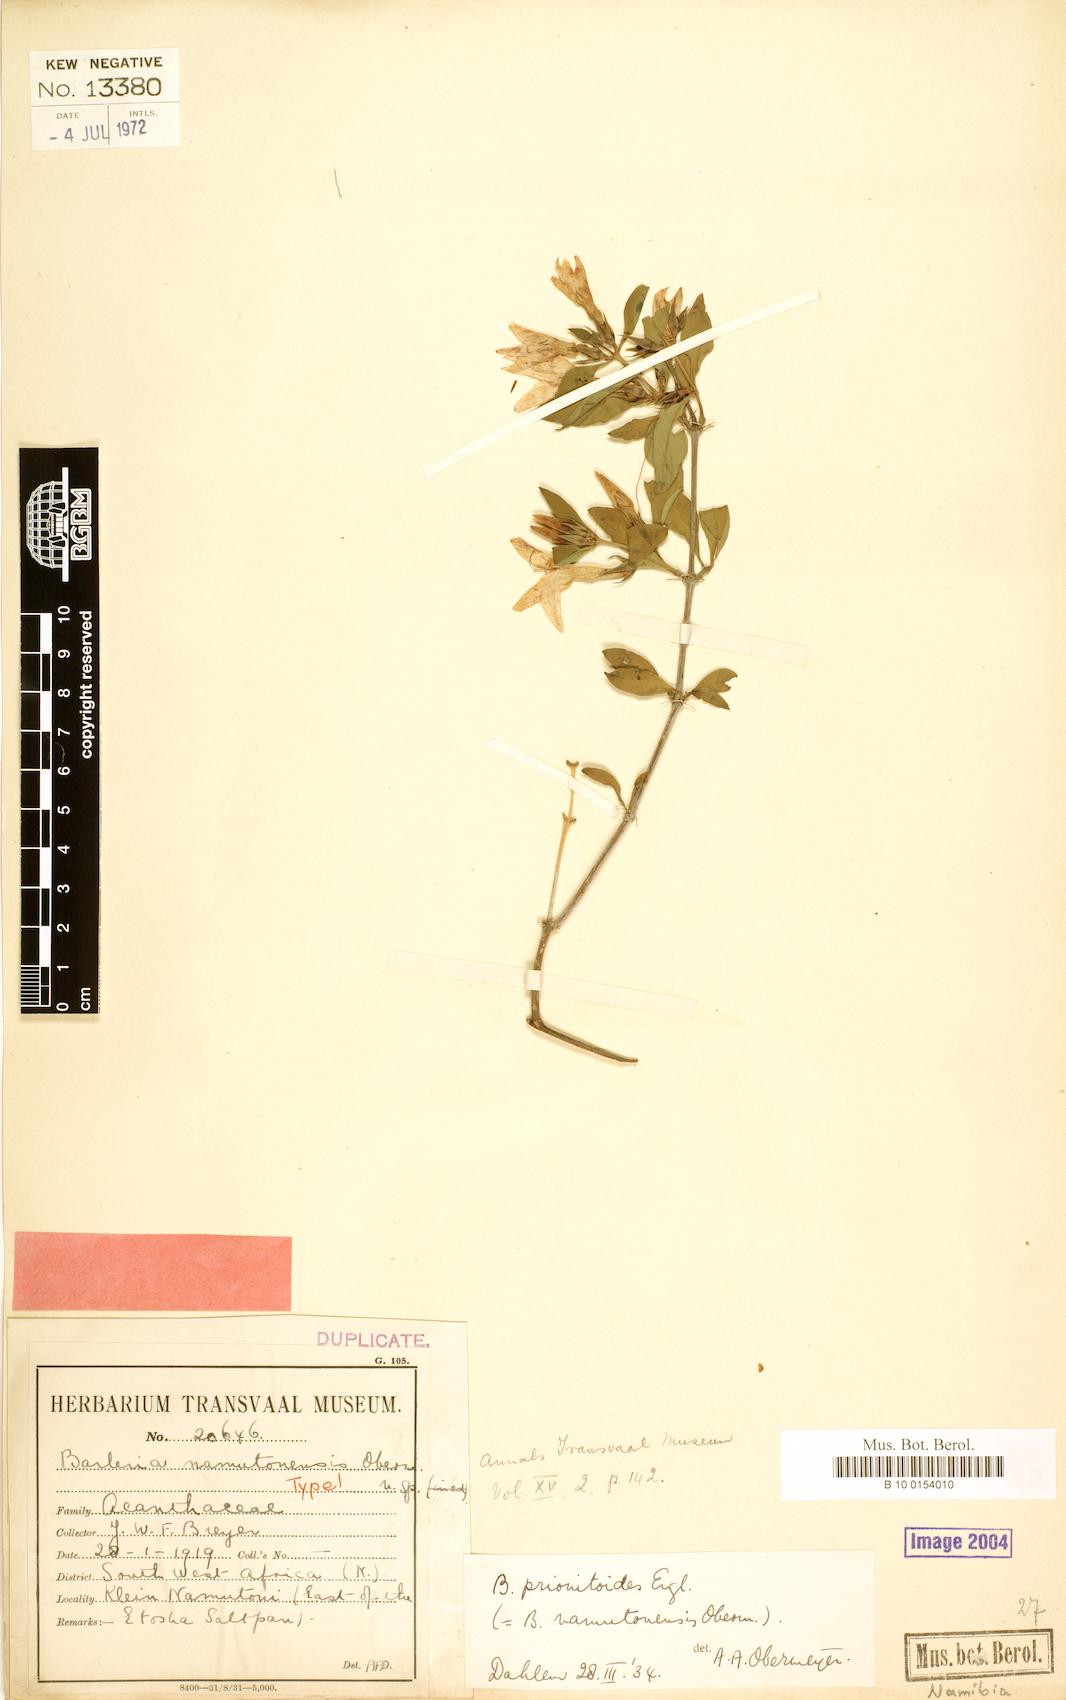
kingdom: Plantae
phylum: Tracheophyta
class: Magnoliopsida
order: Lamiales
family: Acanthaceae
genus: Barleria
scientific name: Barleria prionitoides
